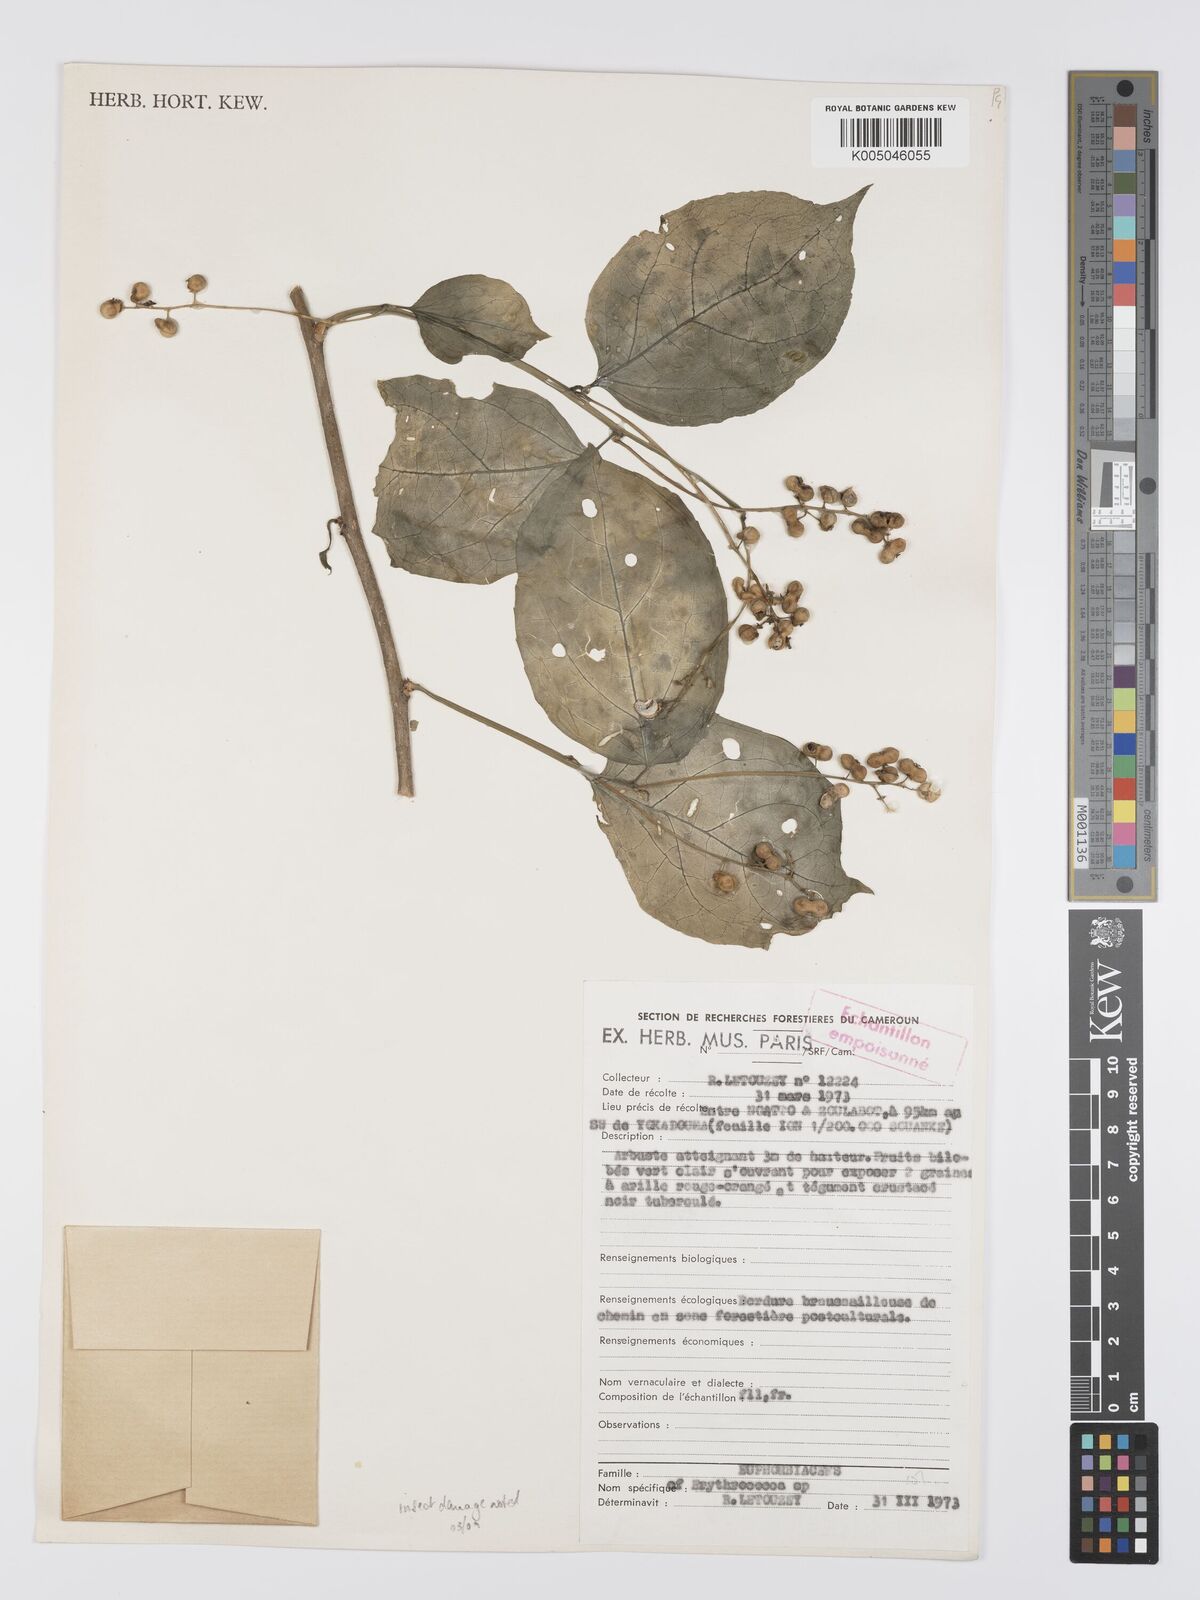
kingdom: Plantae
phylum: Tracheophyta
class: Magnoliopsida
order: Malpighiales
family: Euphorbiaceae
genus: Erythrococca
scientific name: Erythrococca
